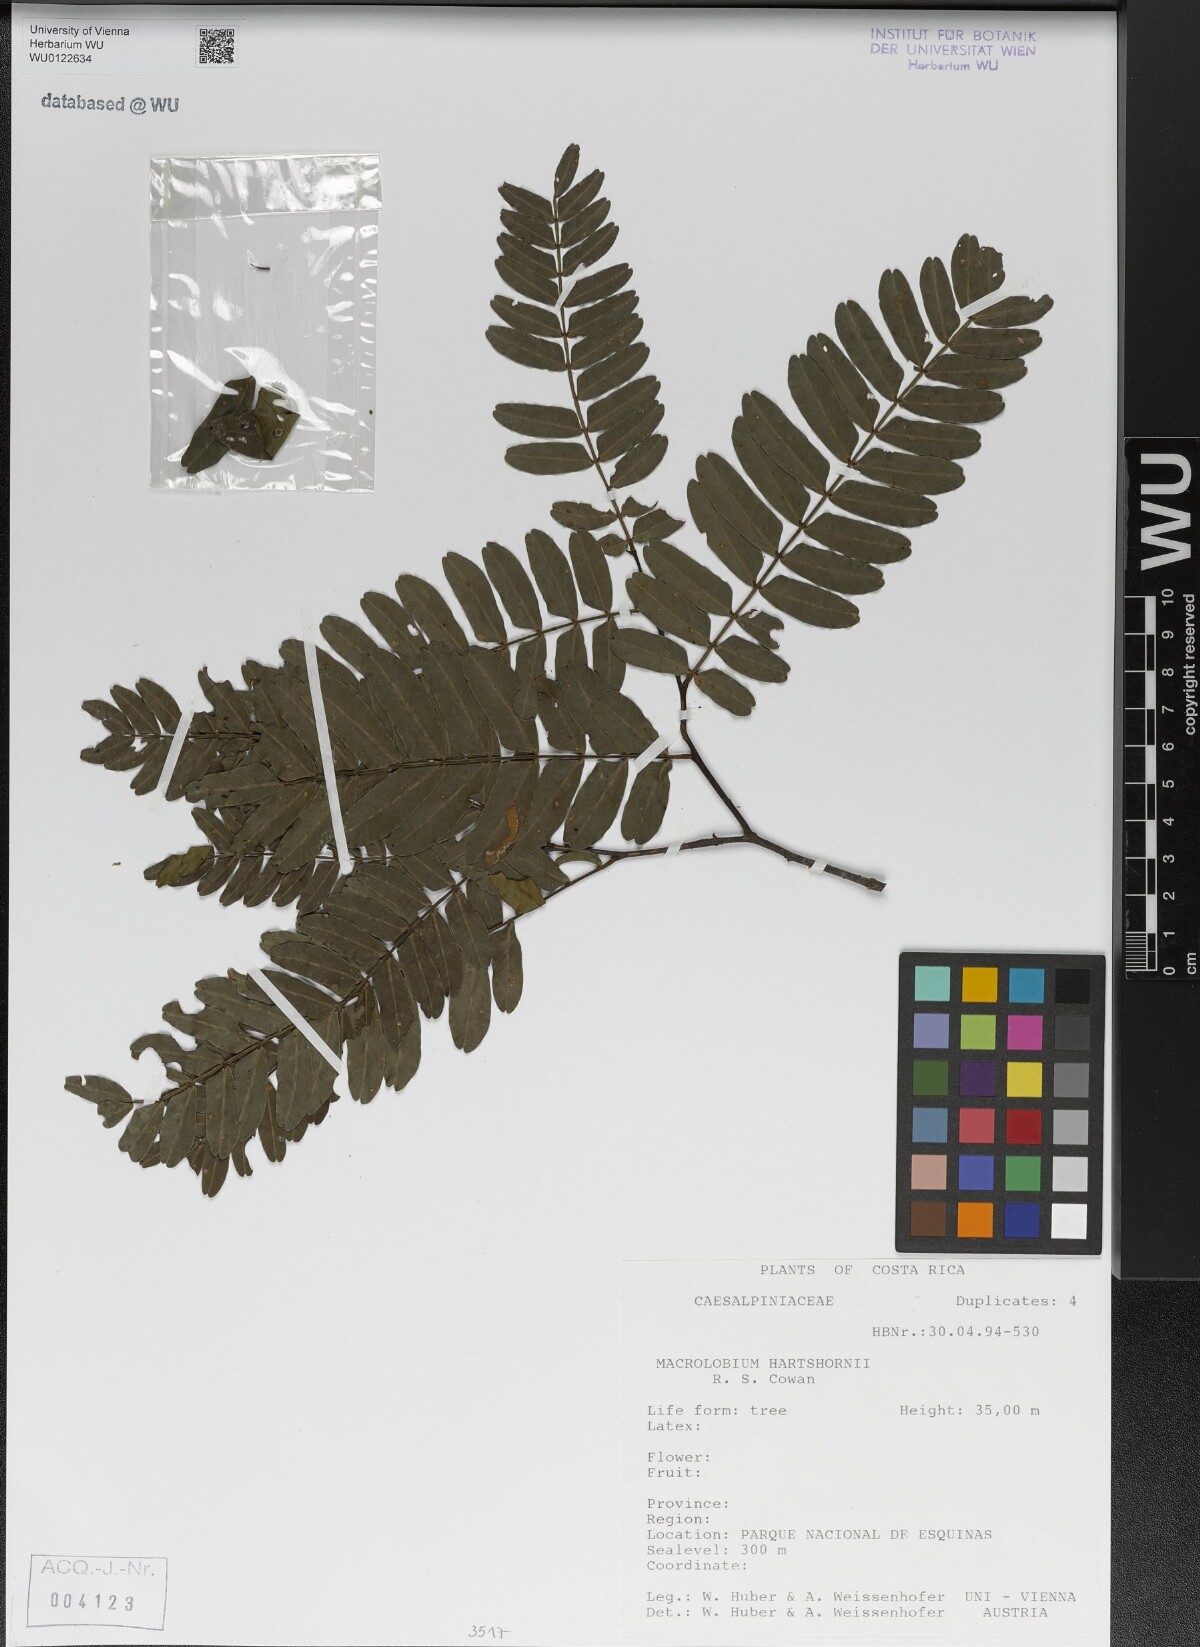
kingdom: Plantae
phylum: Tracheophyta
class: Magnoliopsida
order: Fabales
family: Fabaceae
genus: Macrolobium
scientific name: Macrolobium hartshornii
